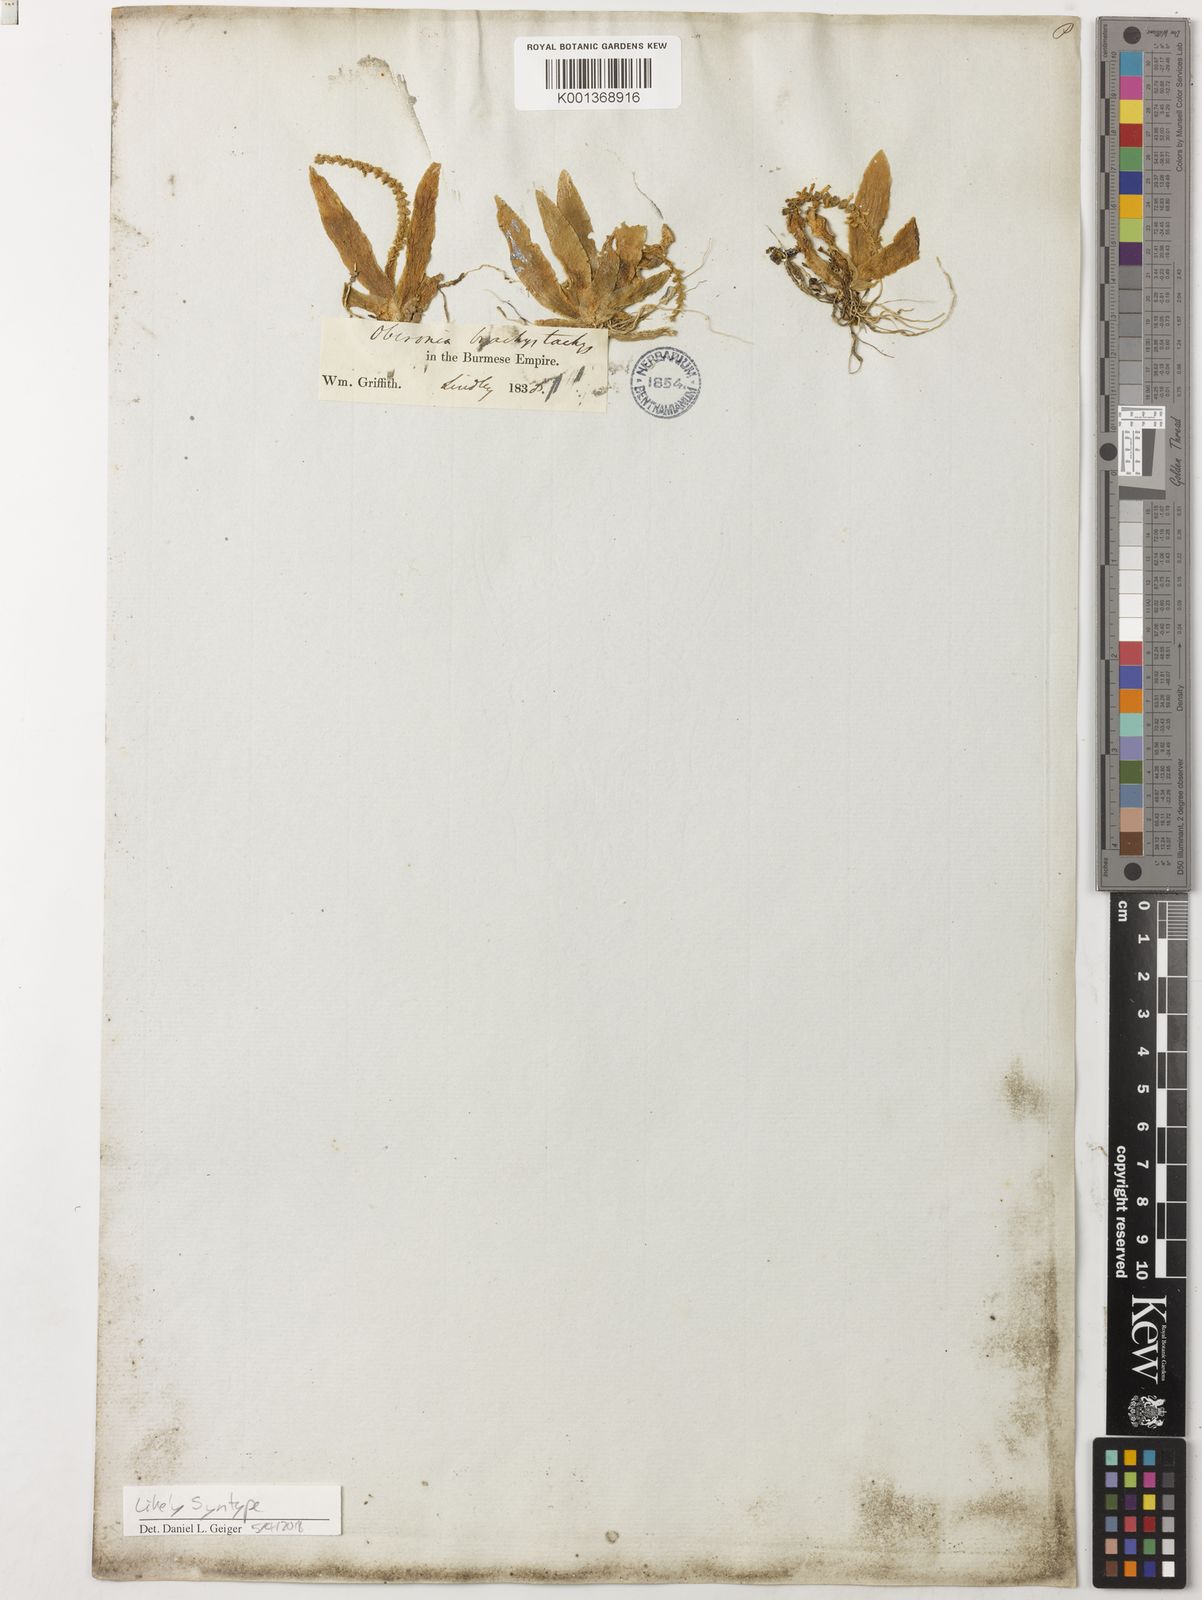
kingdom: Plantae
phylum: Tracheophyta
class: Liliopsida
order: Asparagales
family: Orchidaceae
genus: Oberonia
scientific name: Oberonia brachystachys
